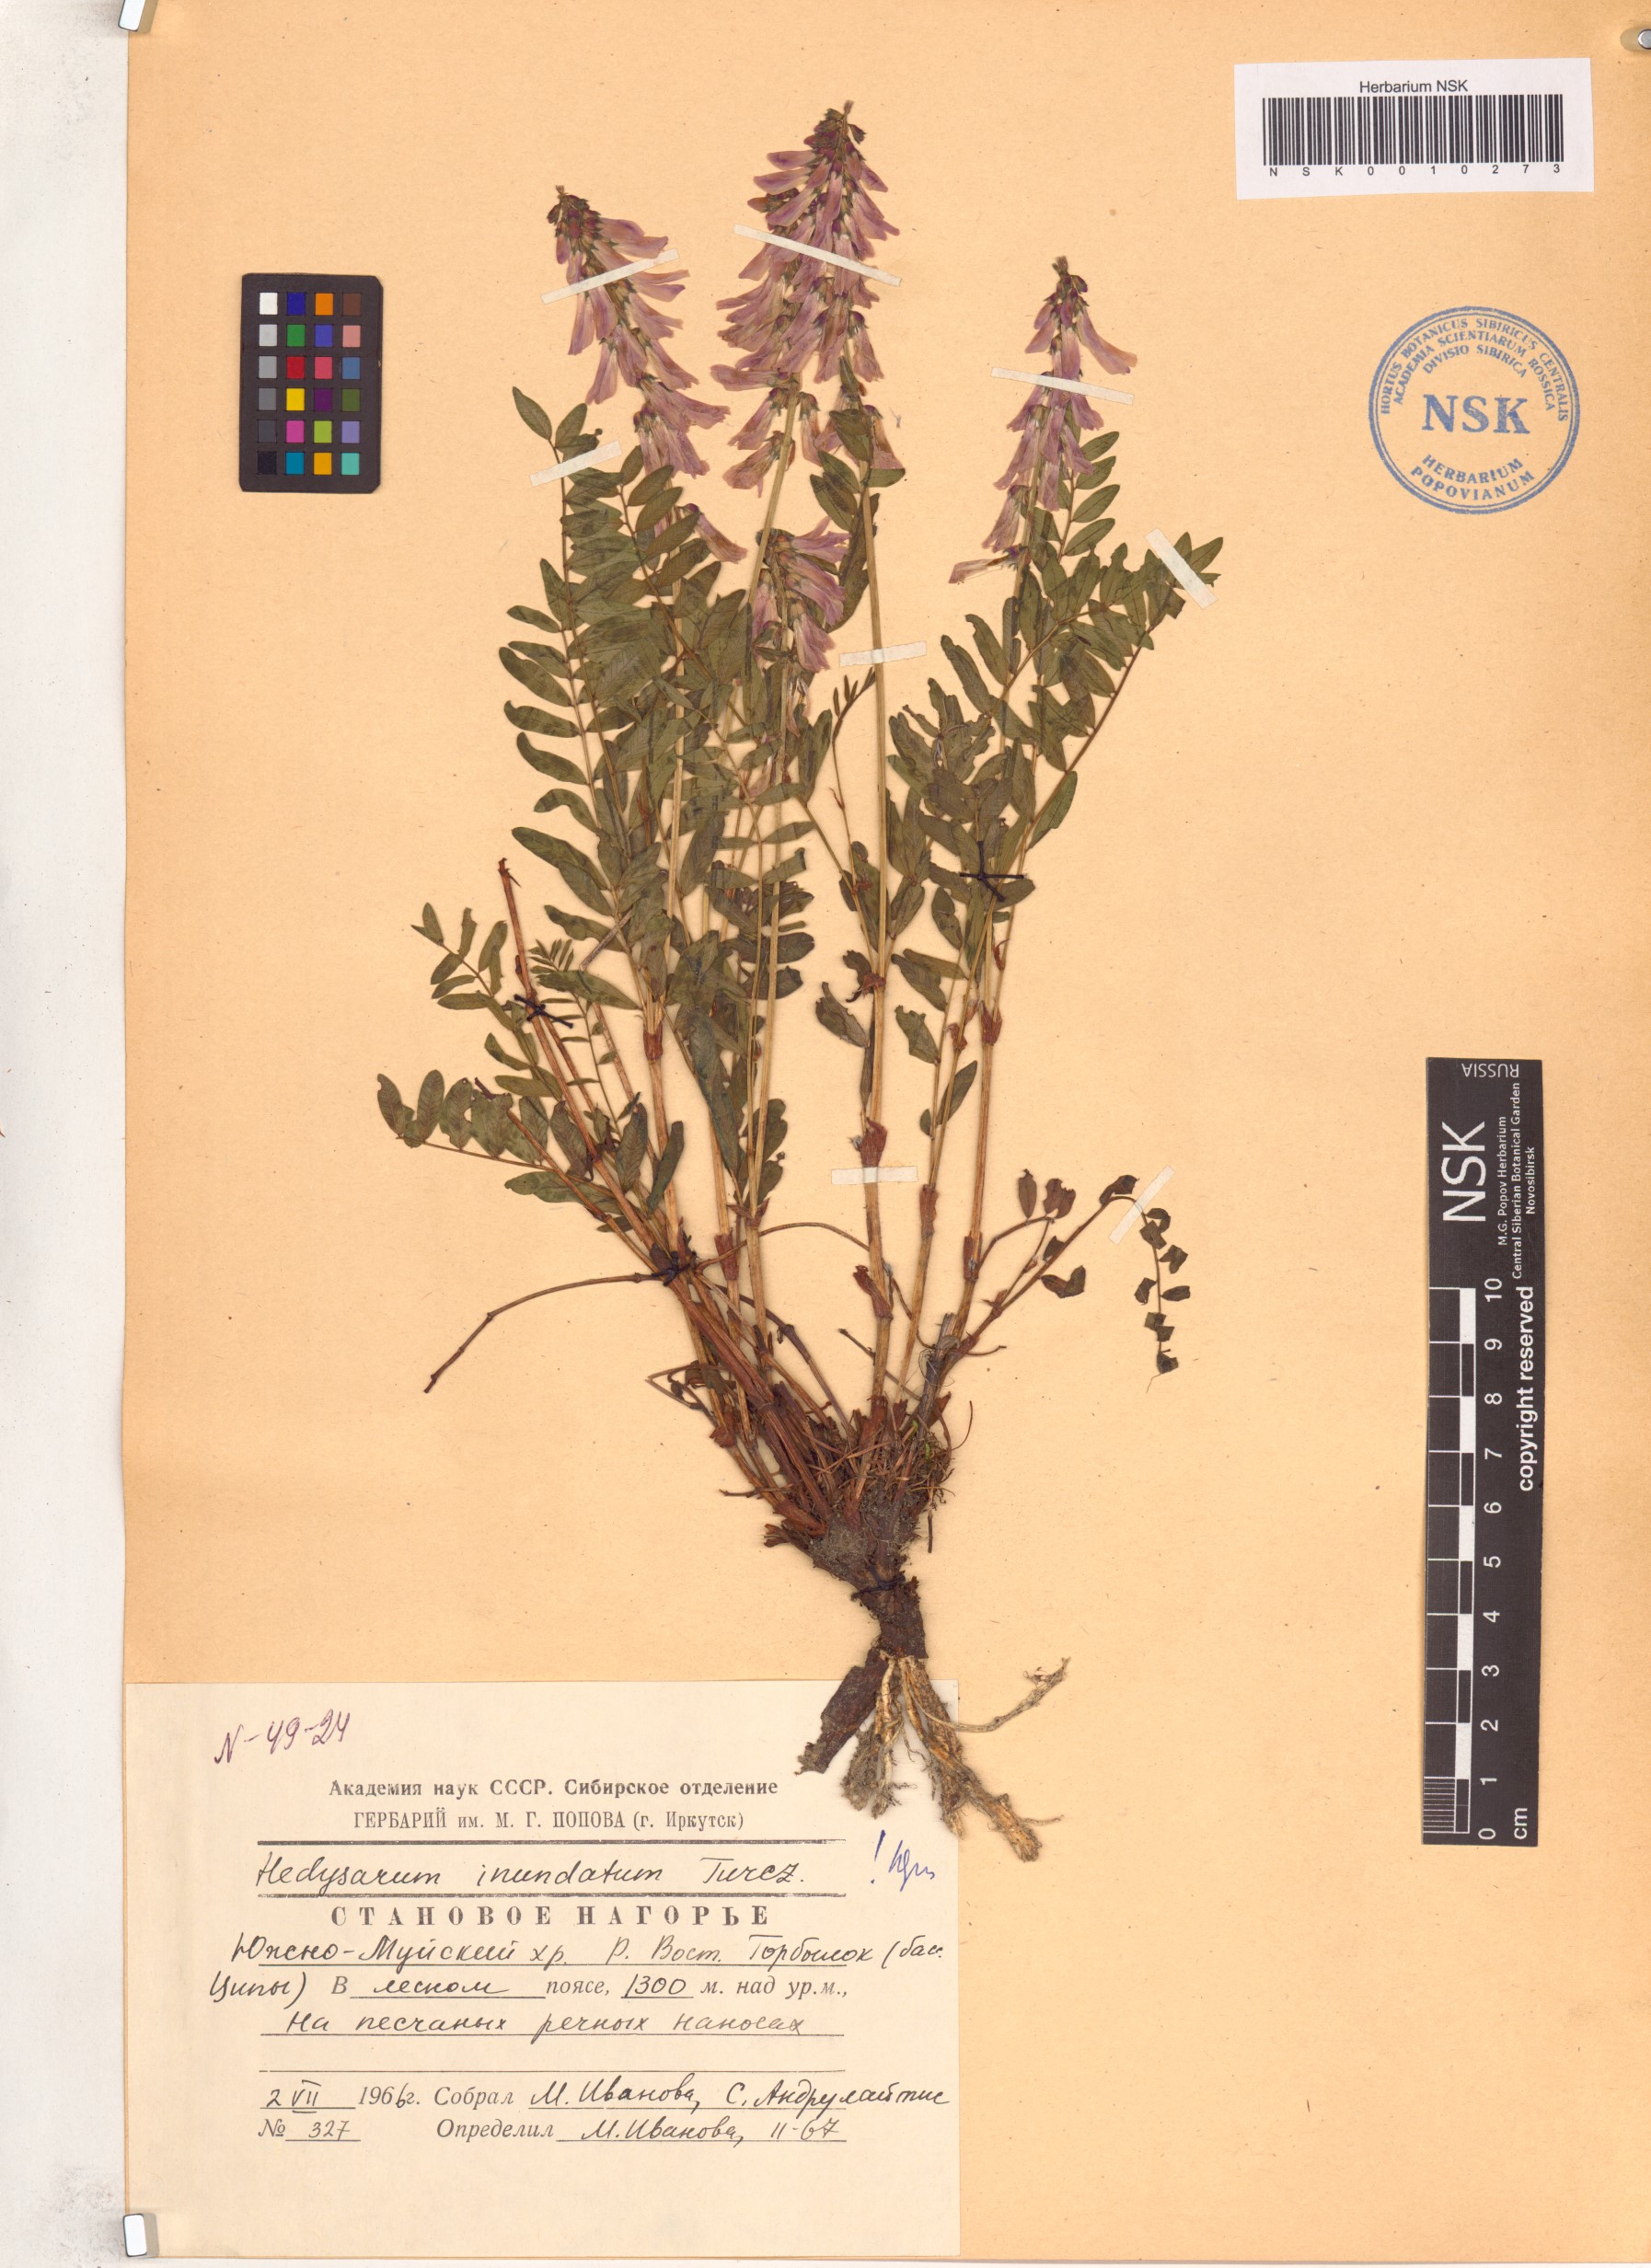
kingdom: Plantae
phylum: Tracheophyta
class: Magnoliopsida
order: Fabales
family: Fabaceae
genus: Hedysarum
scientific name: Hedysarum inundatum
